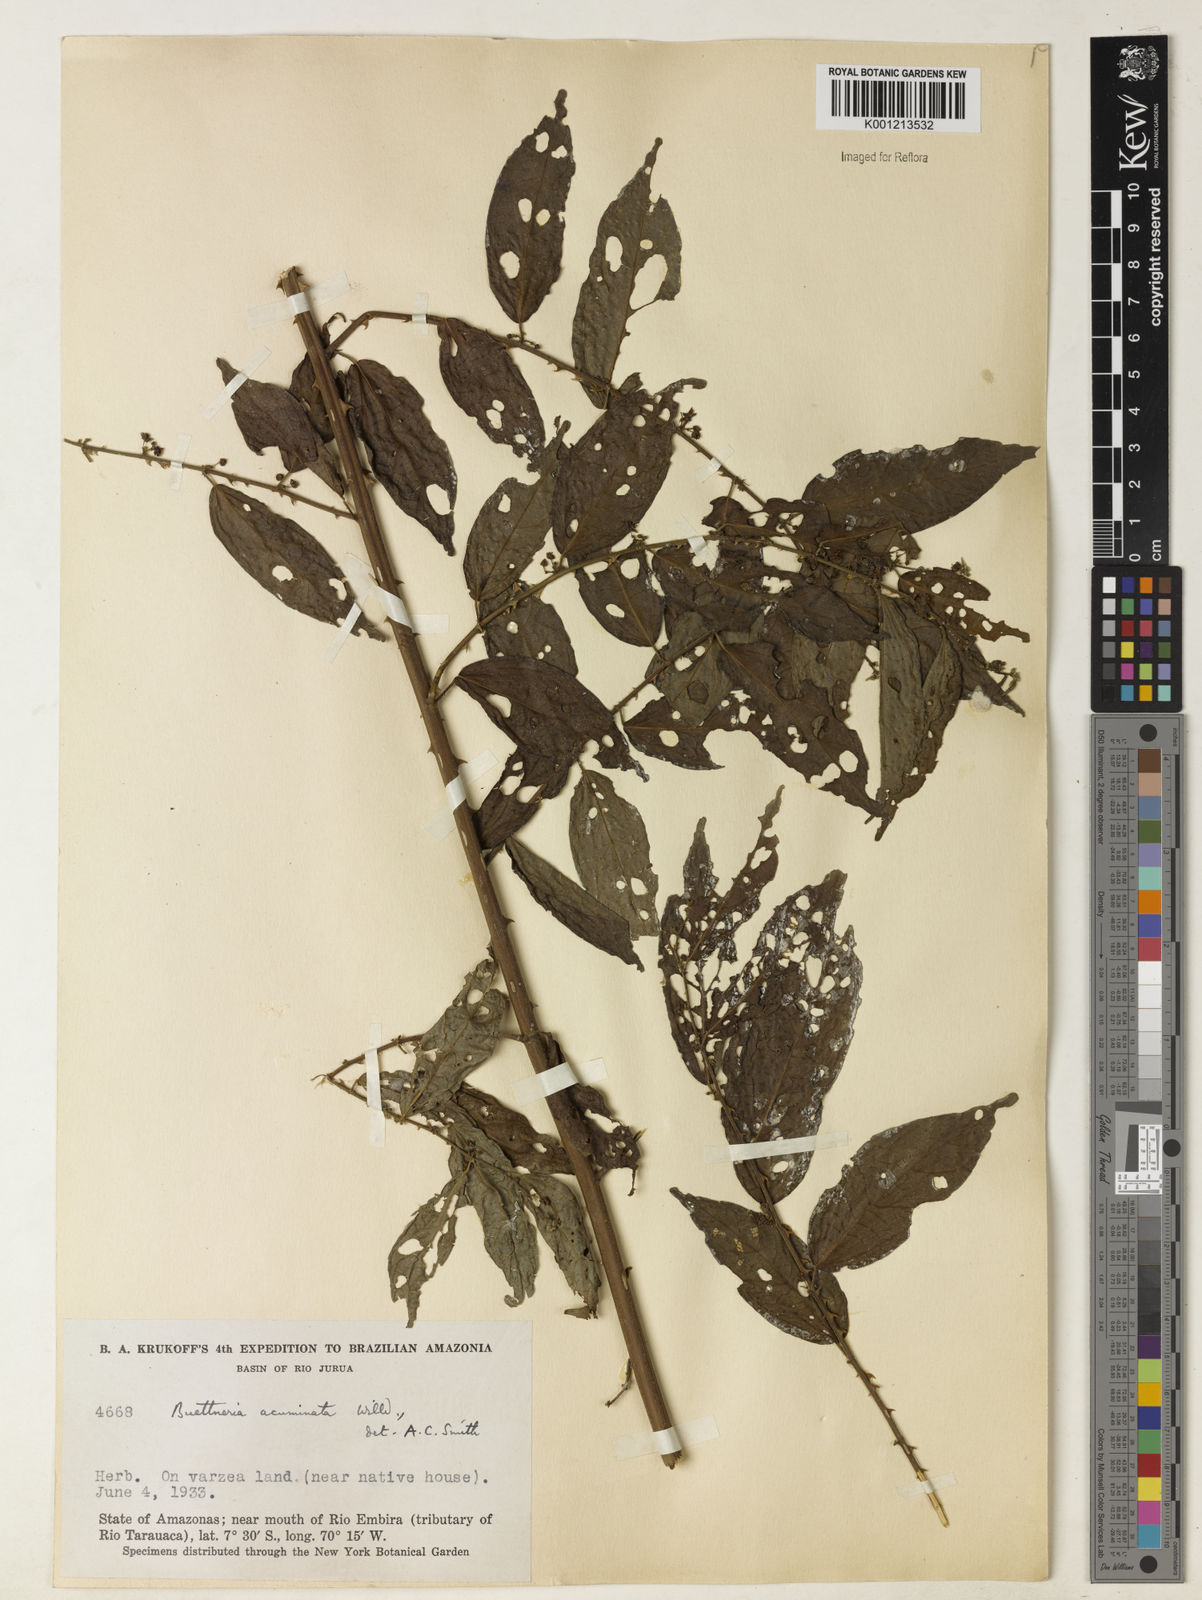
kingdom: Plantae
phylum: Tracheophyta
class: Magnoliopsida
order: Malvales
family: Malvaceae
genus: Byttneria
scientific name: Byttneria aculeata
